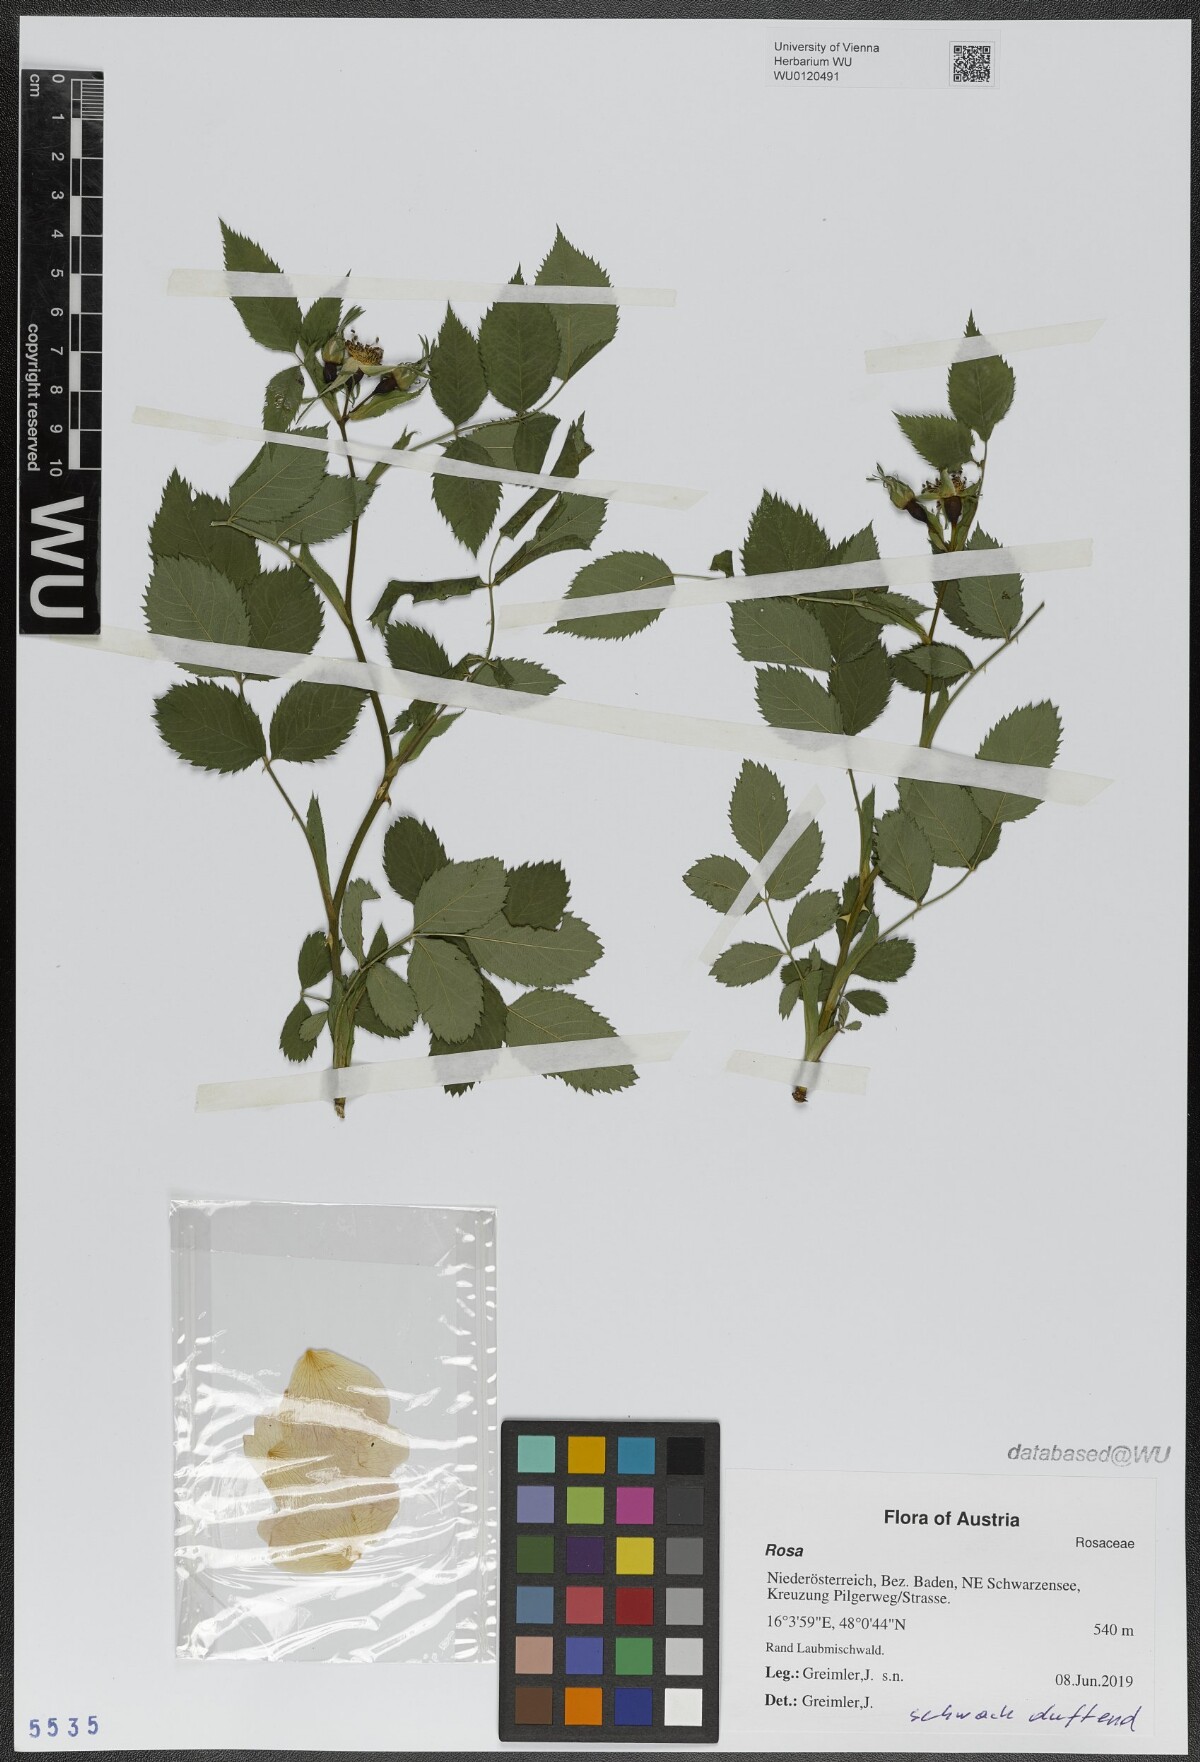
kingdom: Plantae
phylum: Tracheophyta
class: Magnoliopsida
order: Rosales
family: Rosaceae
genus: Rosa
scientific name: Rosa
